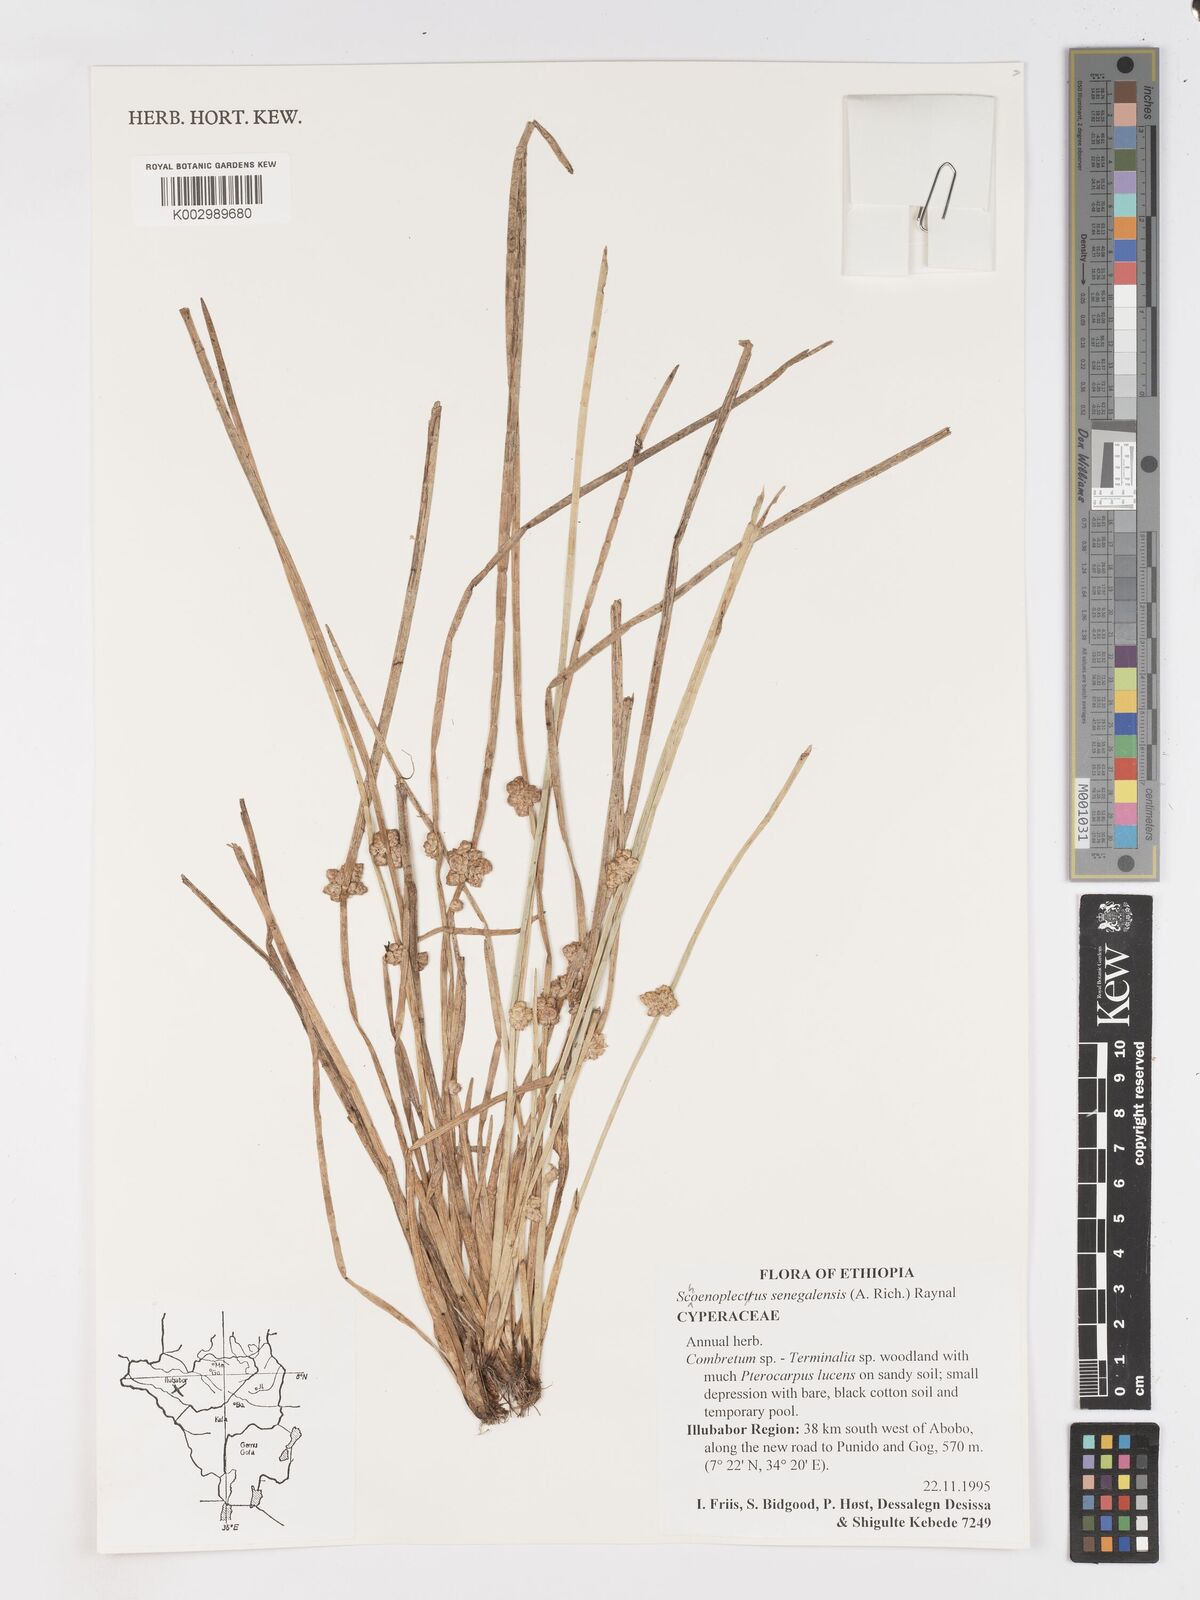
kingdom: Plantae
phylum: Tracheophyta
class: Liliopsida
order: Poales
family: Cyperaceae
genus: Schoenoplectiella
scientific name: Schoenoplectiella senegalensis
